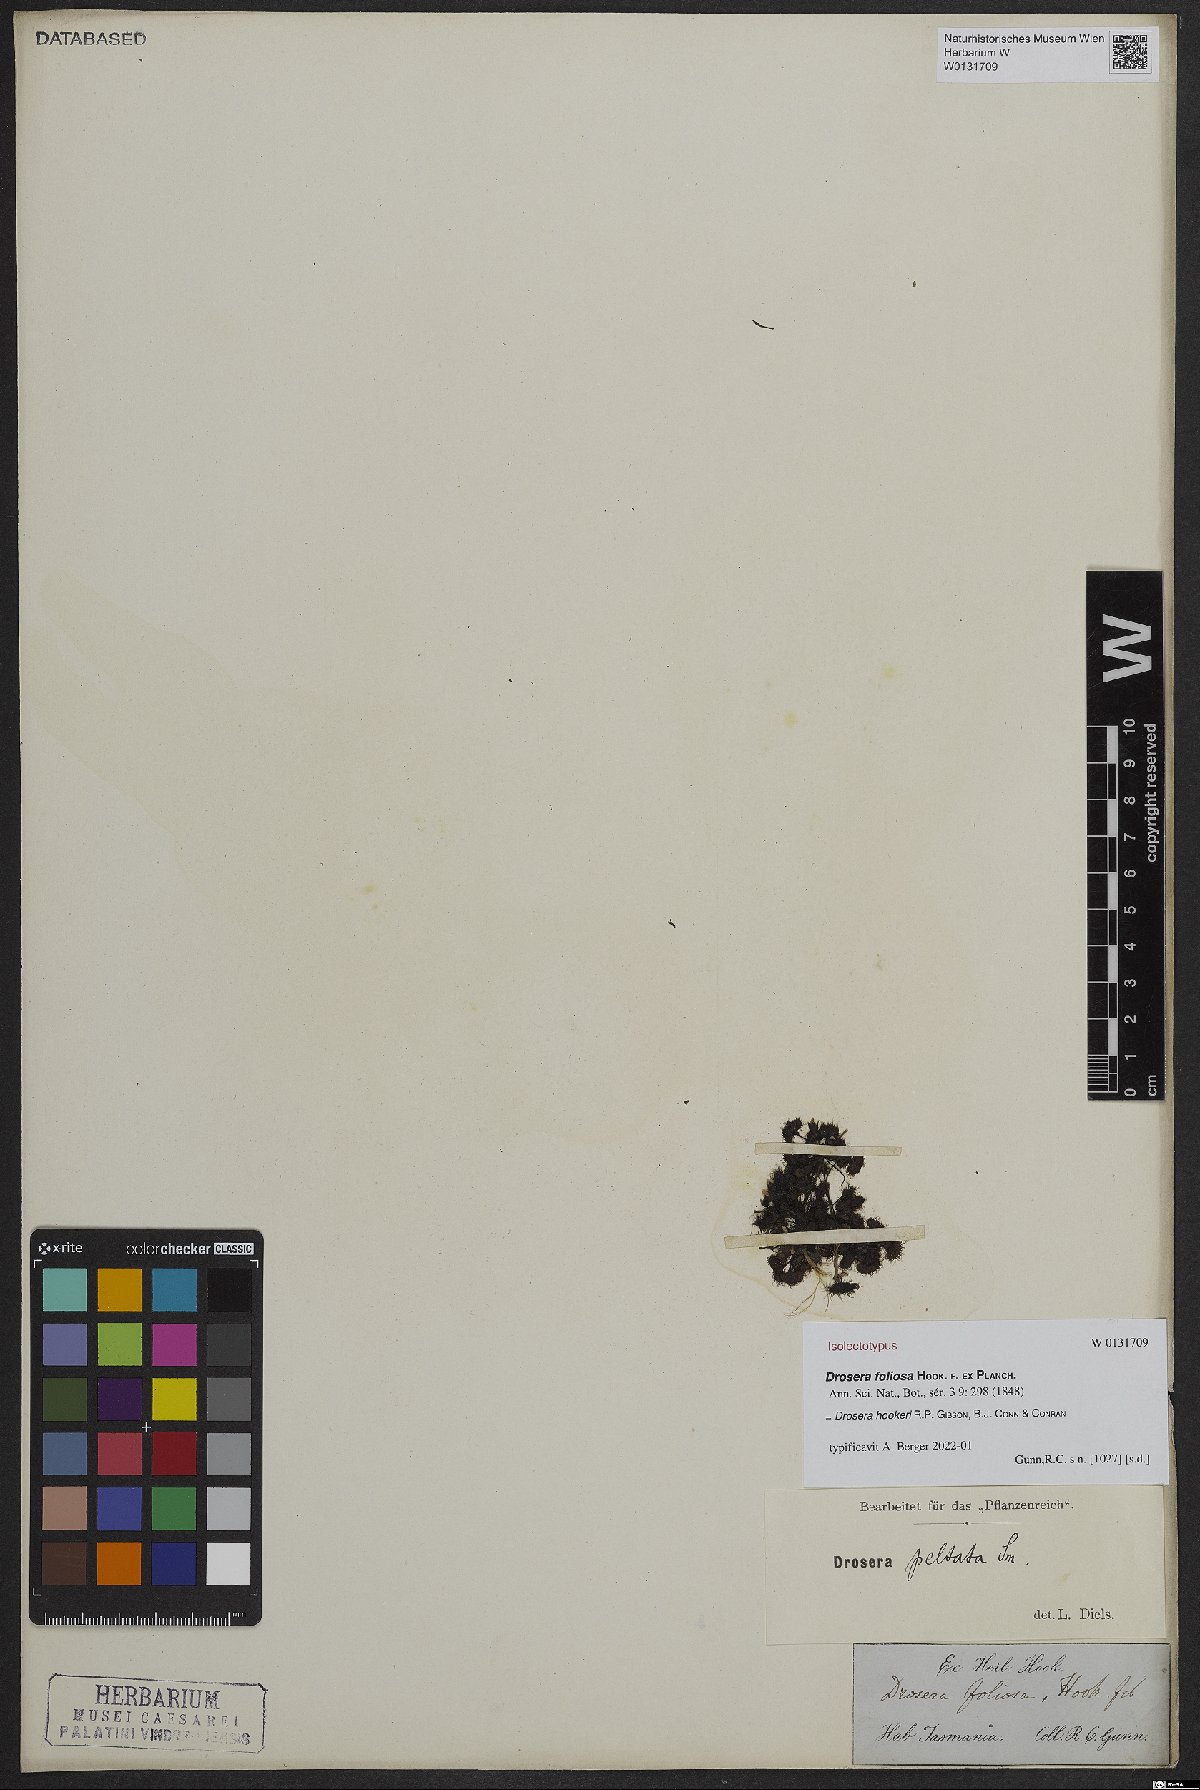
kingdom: Plantae
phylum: Tracheophyta
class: Magnoliopsida
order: Caryophyllales
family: Droseraceae
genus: Drosera
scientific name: Drosera hookeri
